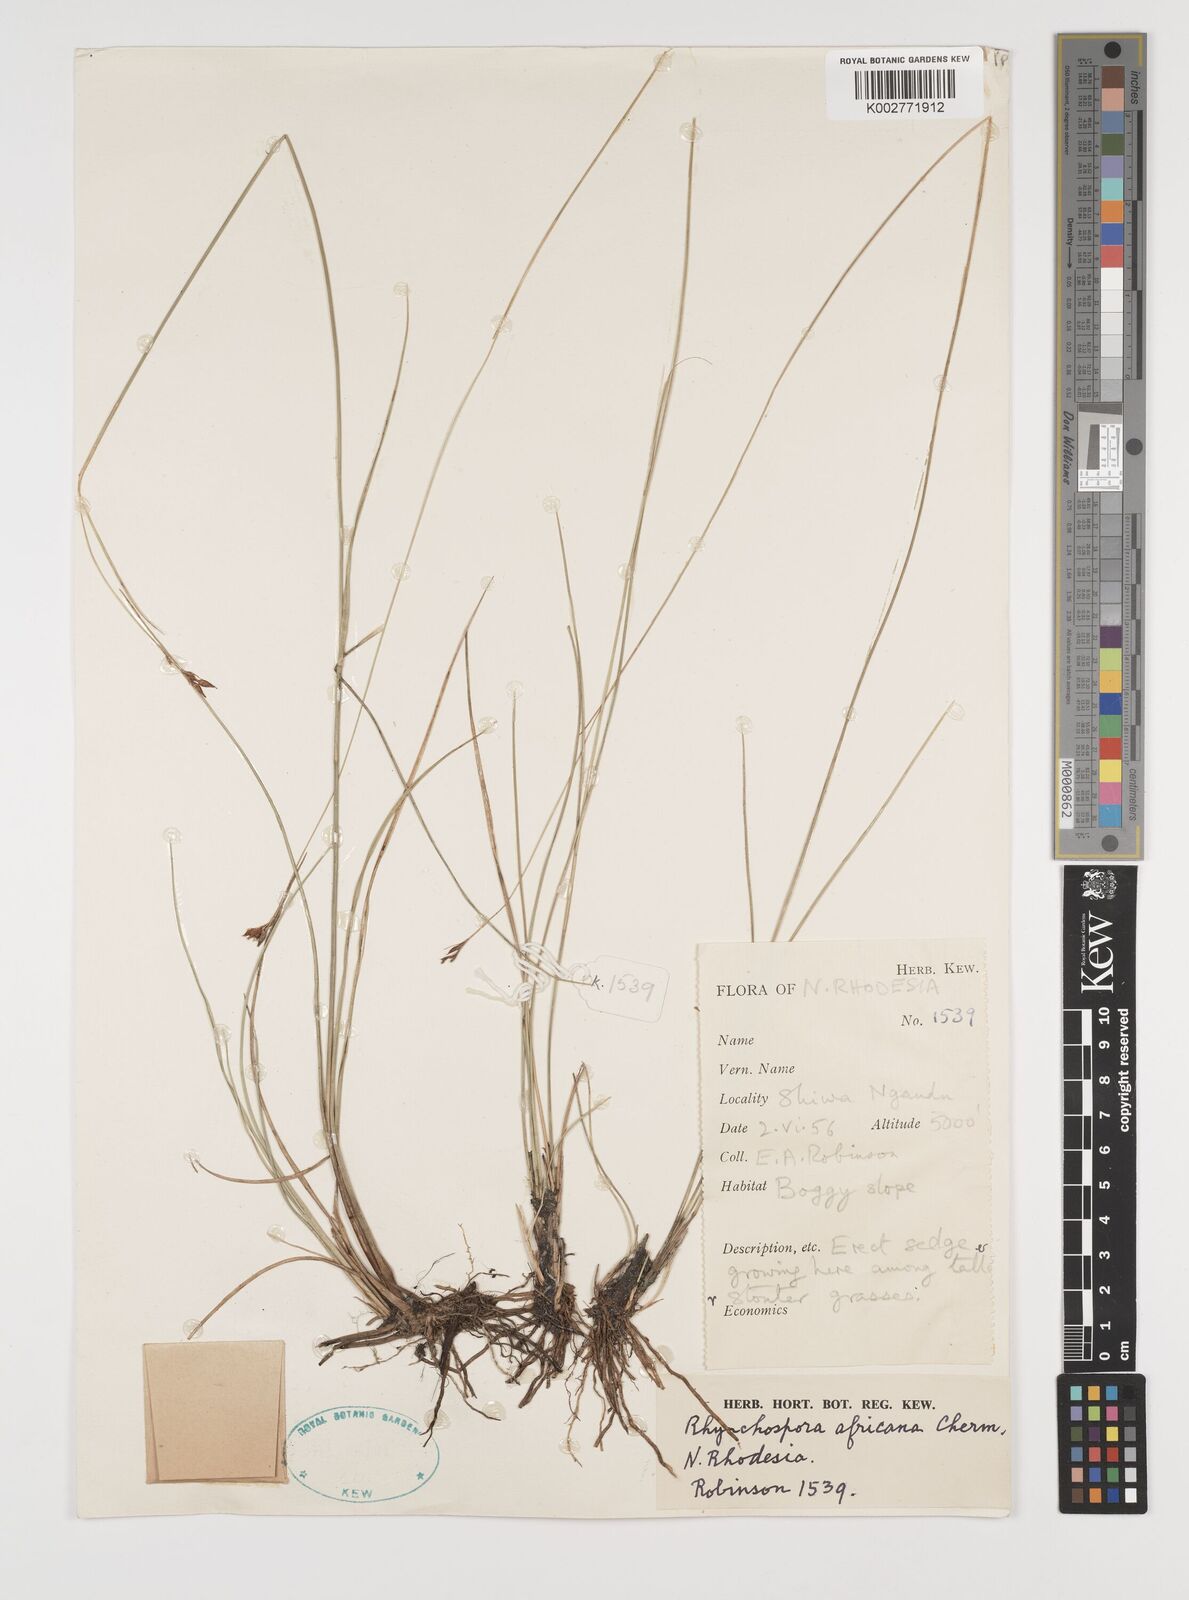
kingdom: Plantae
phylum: Tracheophyta
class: Liliopsida
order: Poales
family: Cyperaceae
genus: Rhynchospora
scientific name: Rhynchospora angolensis
